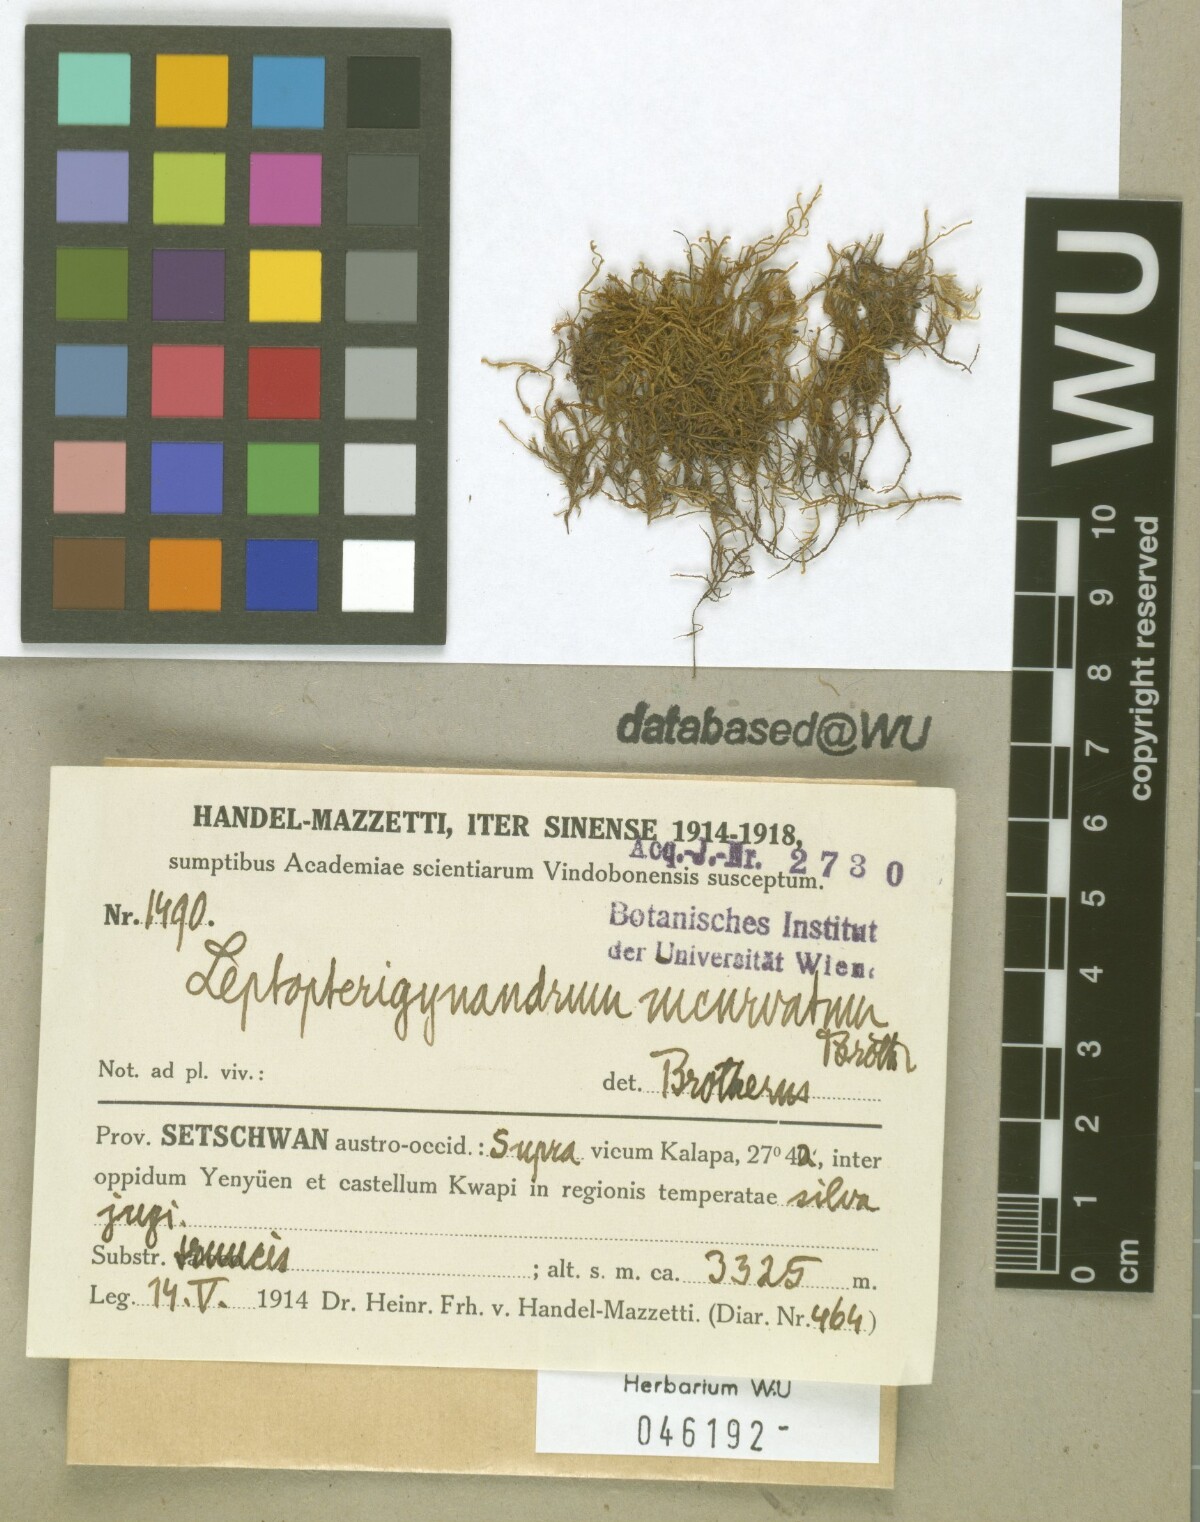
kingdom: Plantae
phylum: Bryophyta
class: Bryopsida
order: Hypnales
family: Taxiphyllaceae
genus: Leptopterigynandrum
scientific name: Leptopterigynandrum incurvatum
